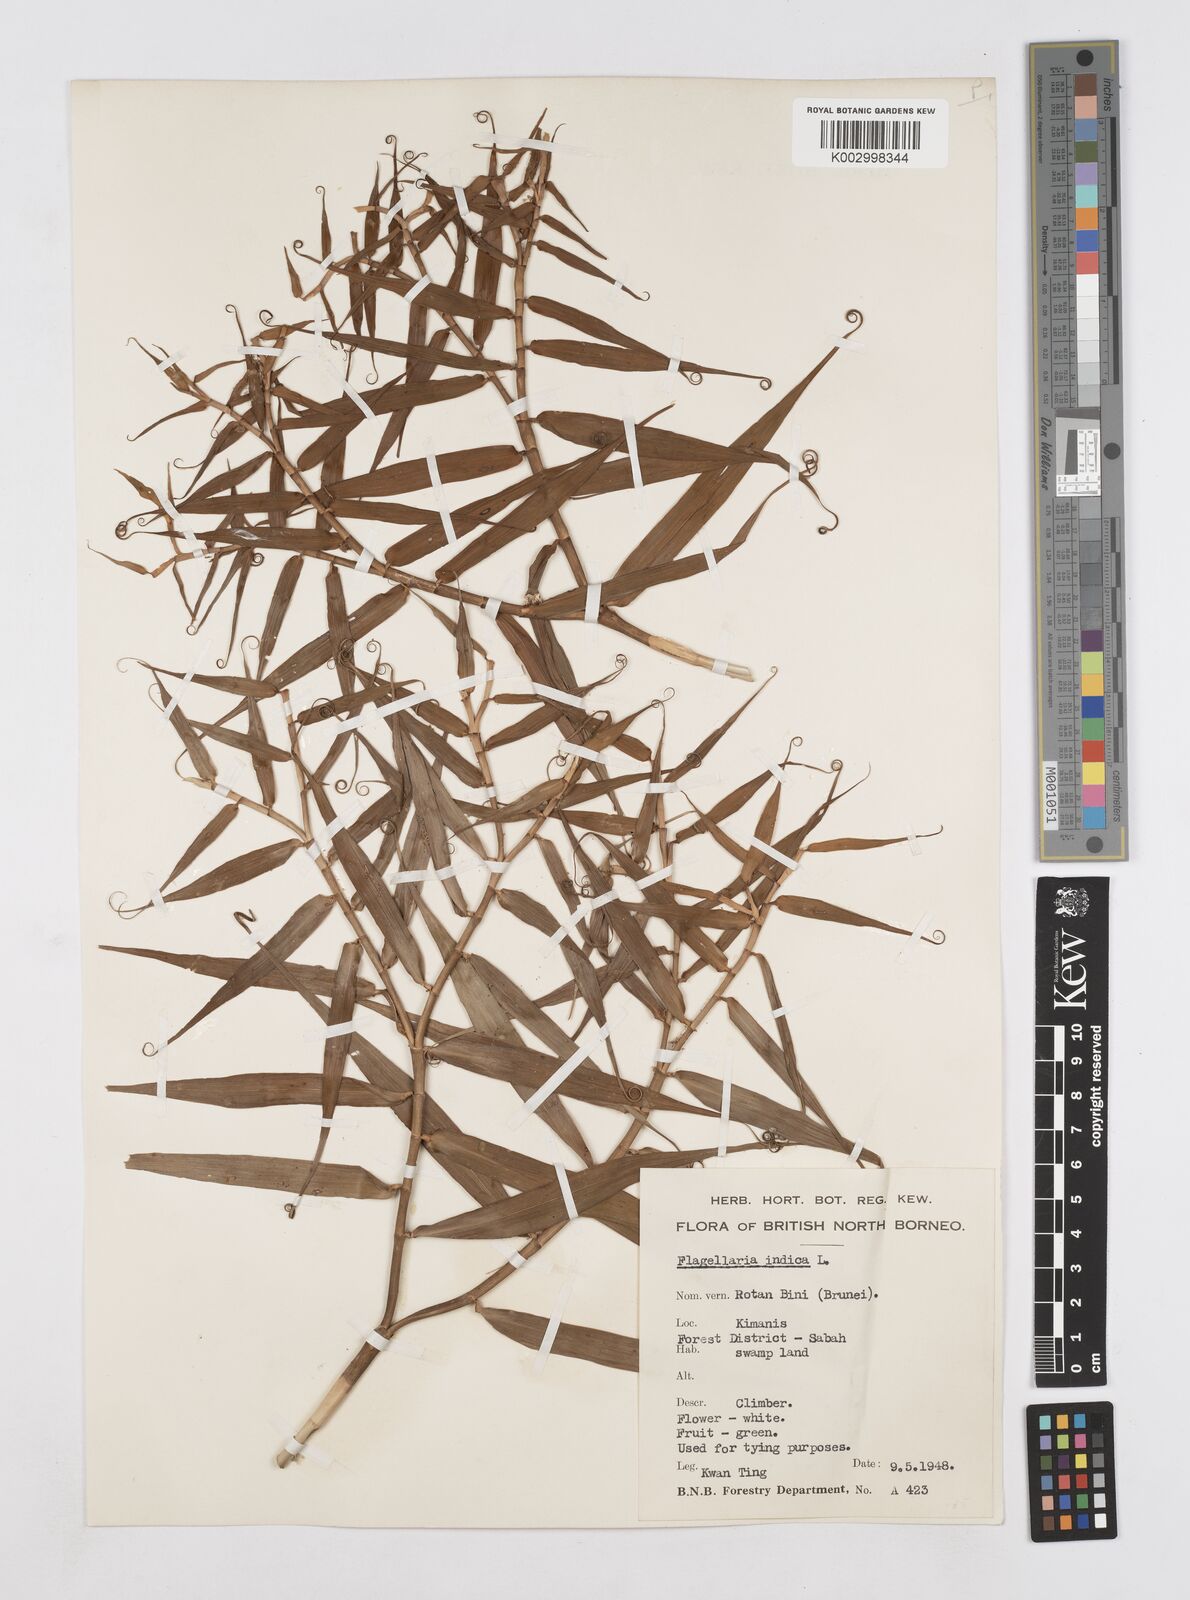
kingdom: Plantae
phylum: Tracheophyta
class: Liliopsida
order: Poales
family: Flagellariaceae
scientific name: Flagellariaceae
